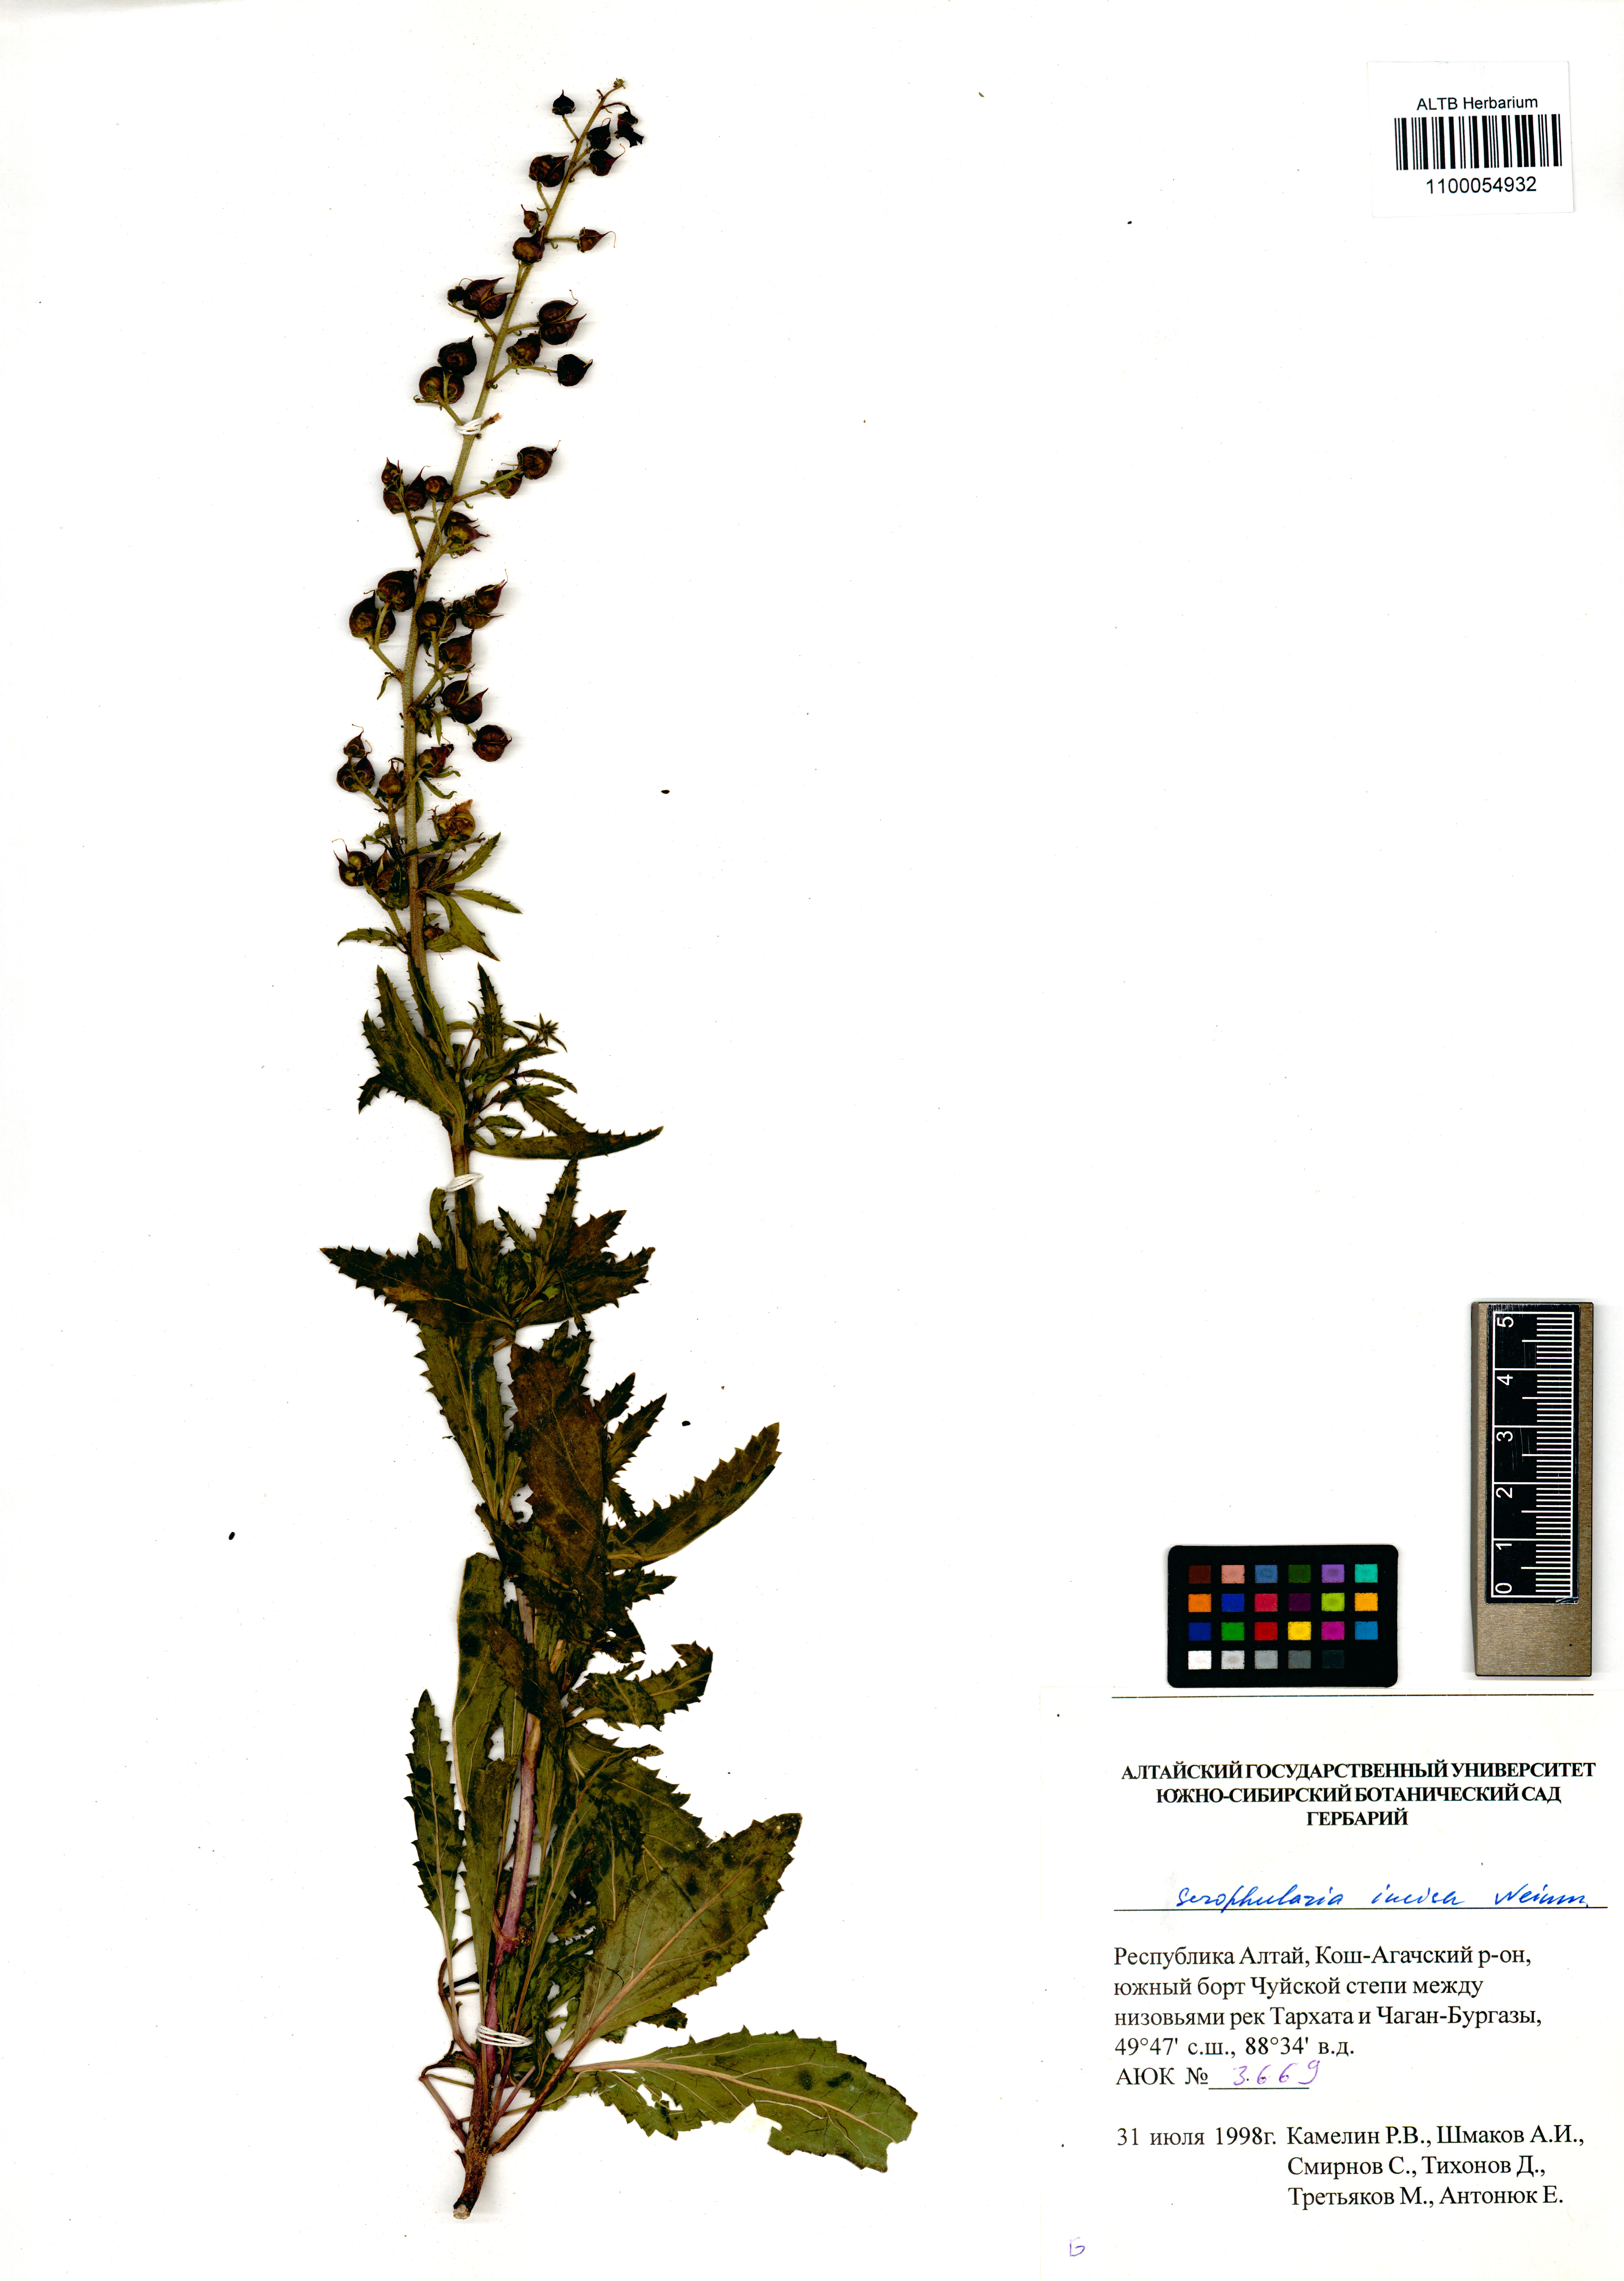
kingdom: Plantae
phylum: Tracheophyta
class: Magnoliopsida
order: Lamiales
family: Scrophulariaceae
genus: Scrophularia
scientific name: Scrophularia incisa
